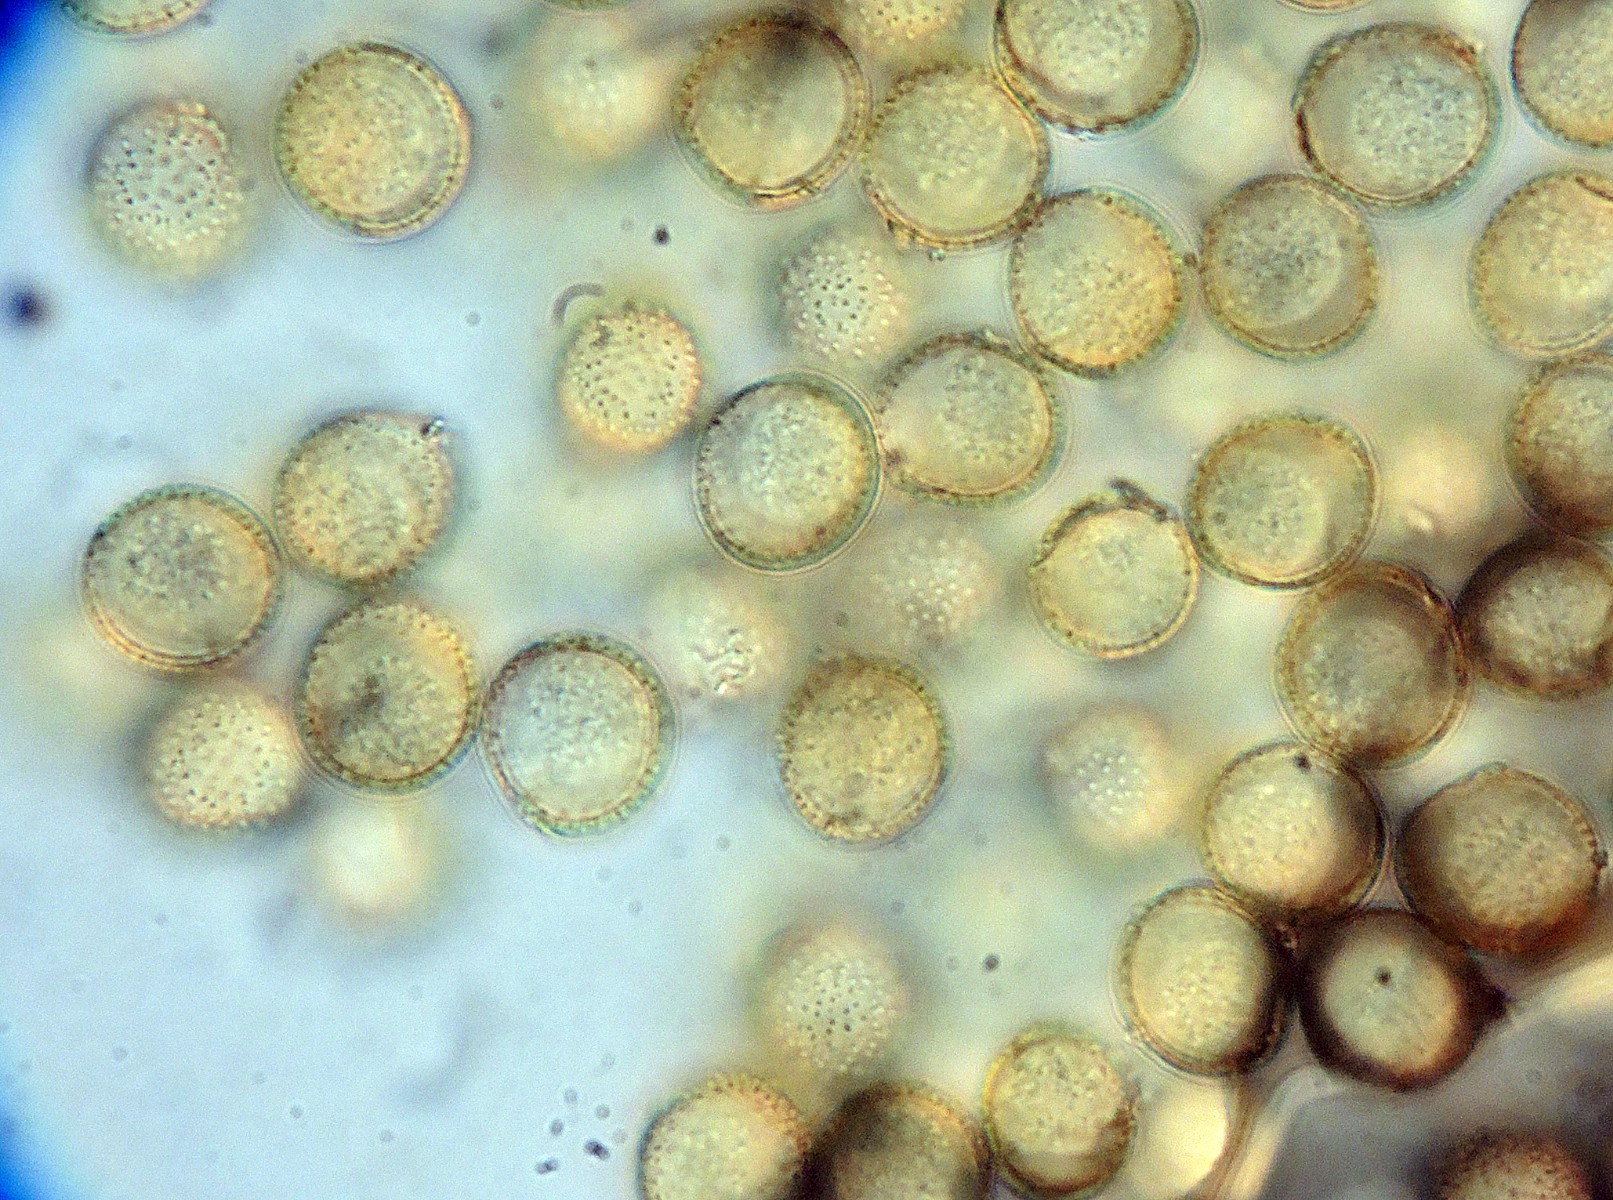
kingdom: Protozoa
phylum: Mycetozoa
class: Myxomycetes
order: Trichiales
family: Trichiaceae
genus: Perichaena
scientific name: Perichaena corticalis
